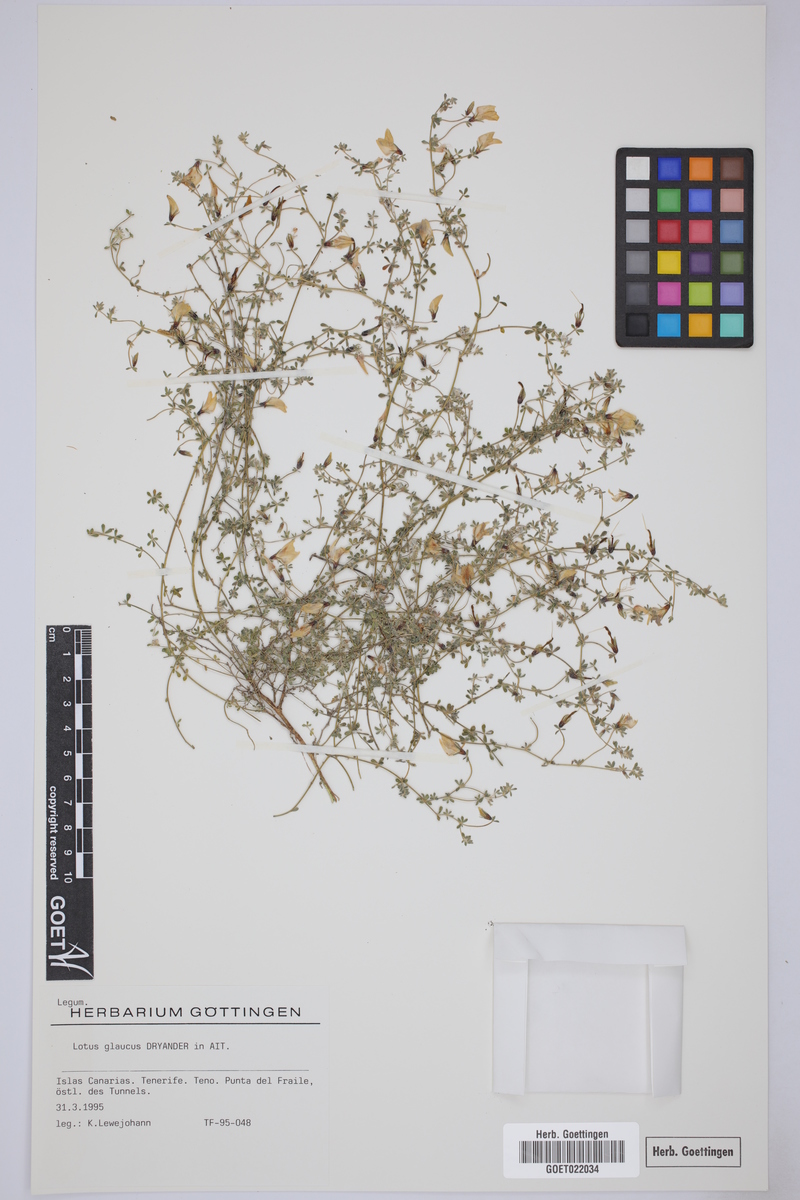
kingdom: Plantae
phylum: Tracheophyta
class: Magnoliopsida
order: Fabales
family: Fabaceae
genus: Lotus
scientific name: Lotus glaucus
